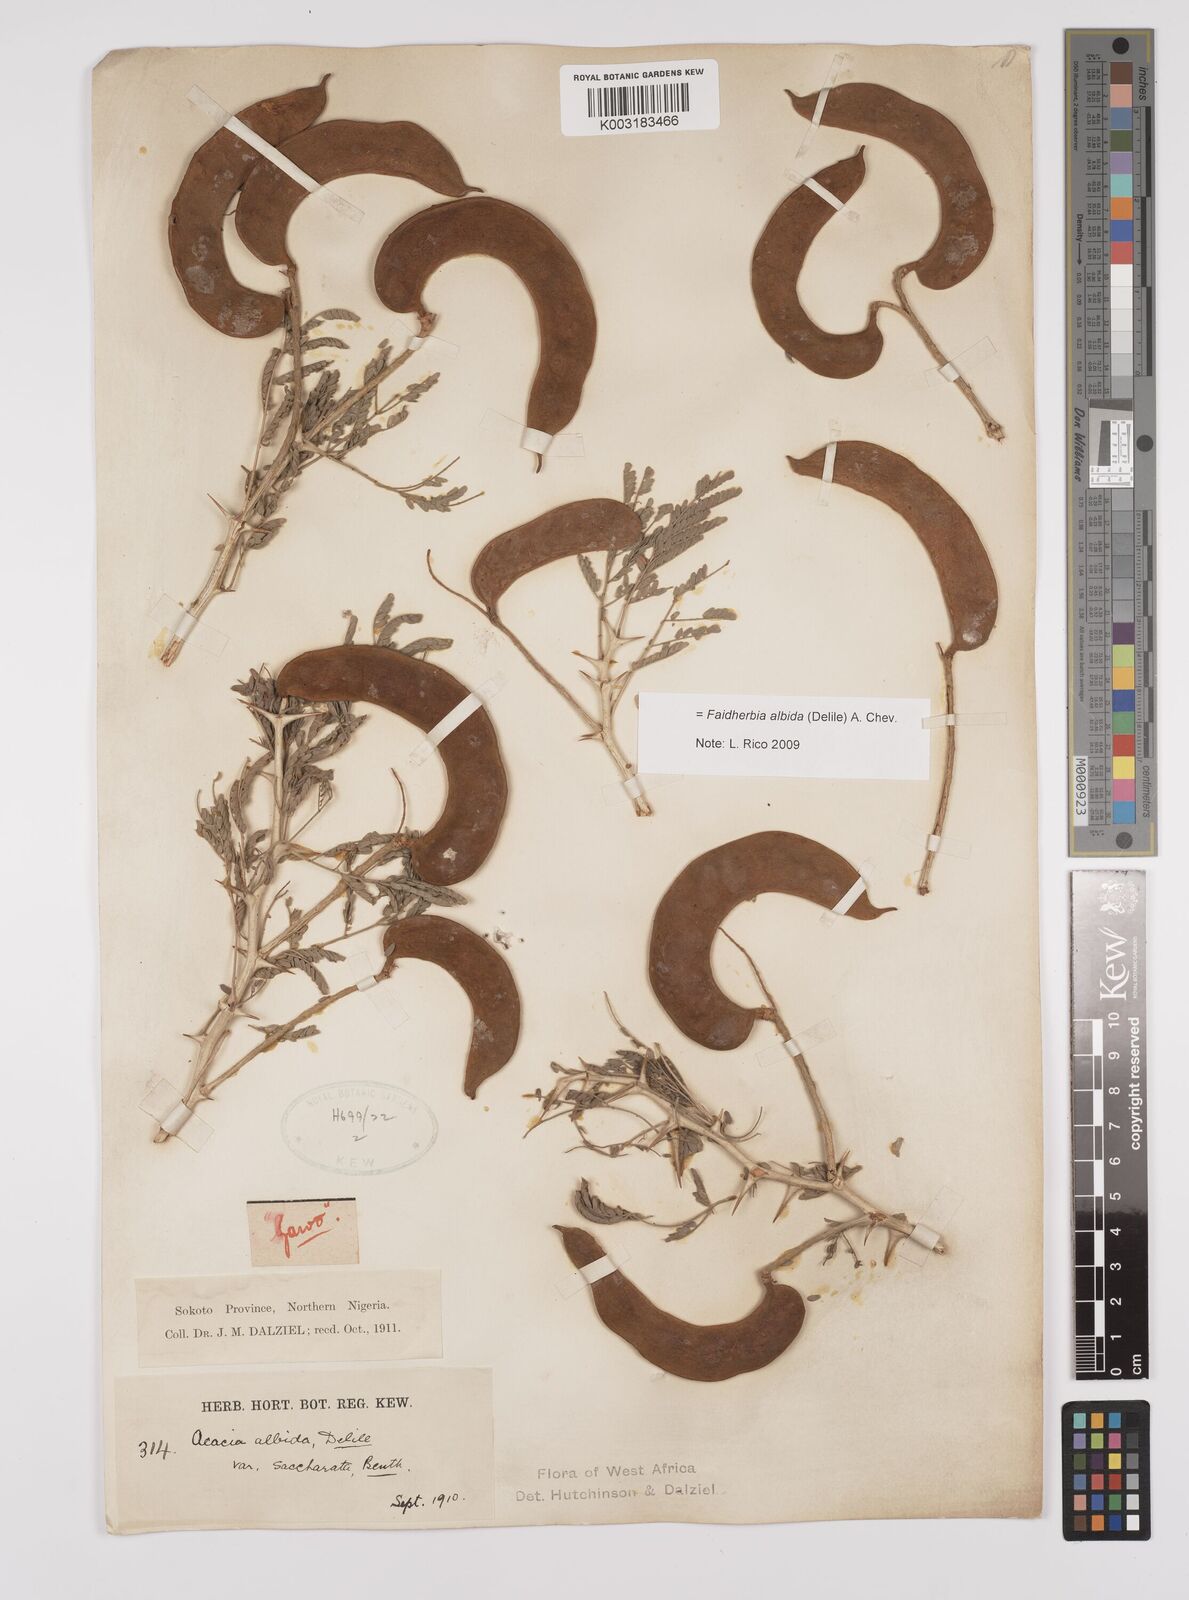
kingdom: Plantae
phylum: Tracheophyta
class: Magnoliopsida
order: Fabales
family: Fabaceae
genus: Faidherbia
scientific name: Faidherbia albida
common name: Anatree
